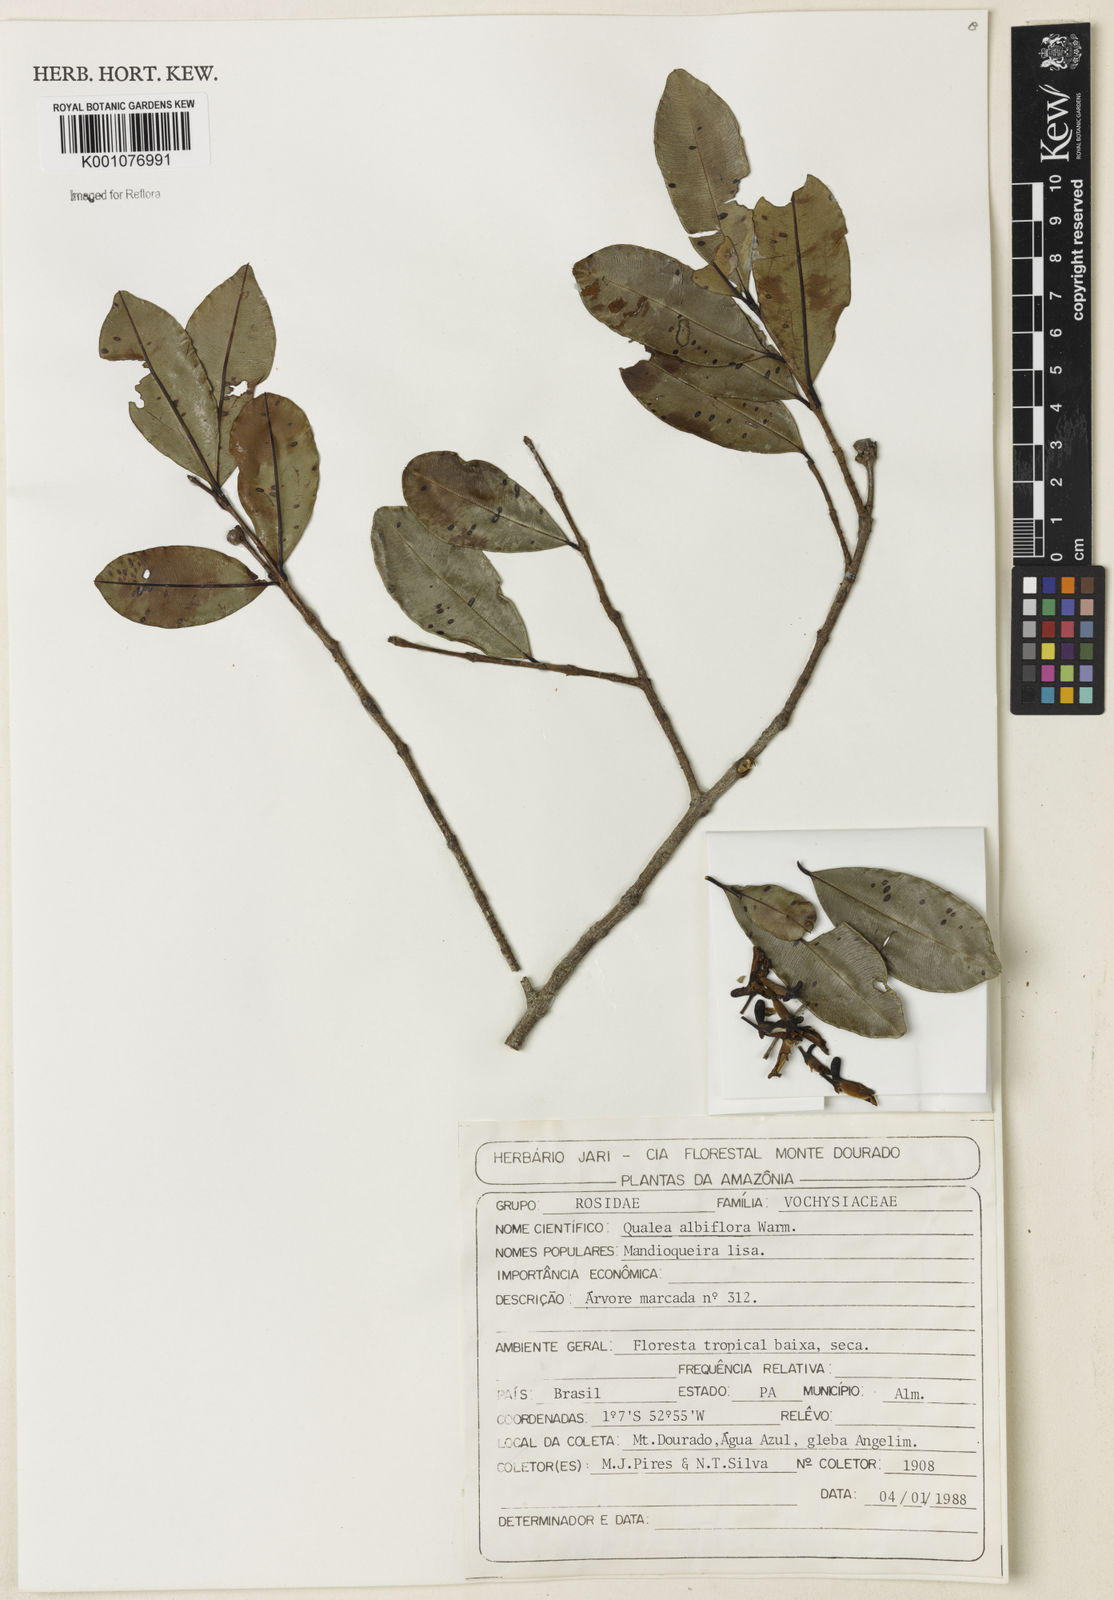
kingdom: Plantae
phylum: Tracheophyta
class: Magnoliopsida
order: Myrtales
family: Vochysiaceae
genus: Ruizterania
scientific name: Ruizterania albiflora
